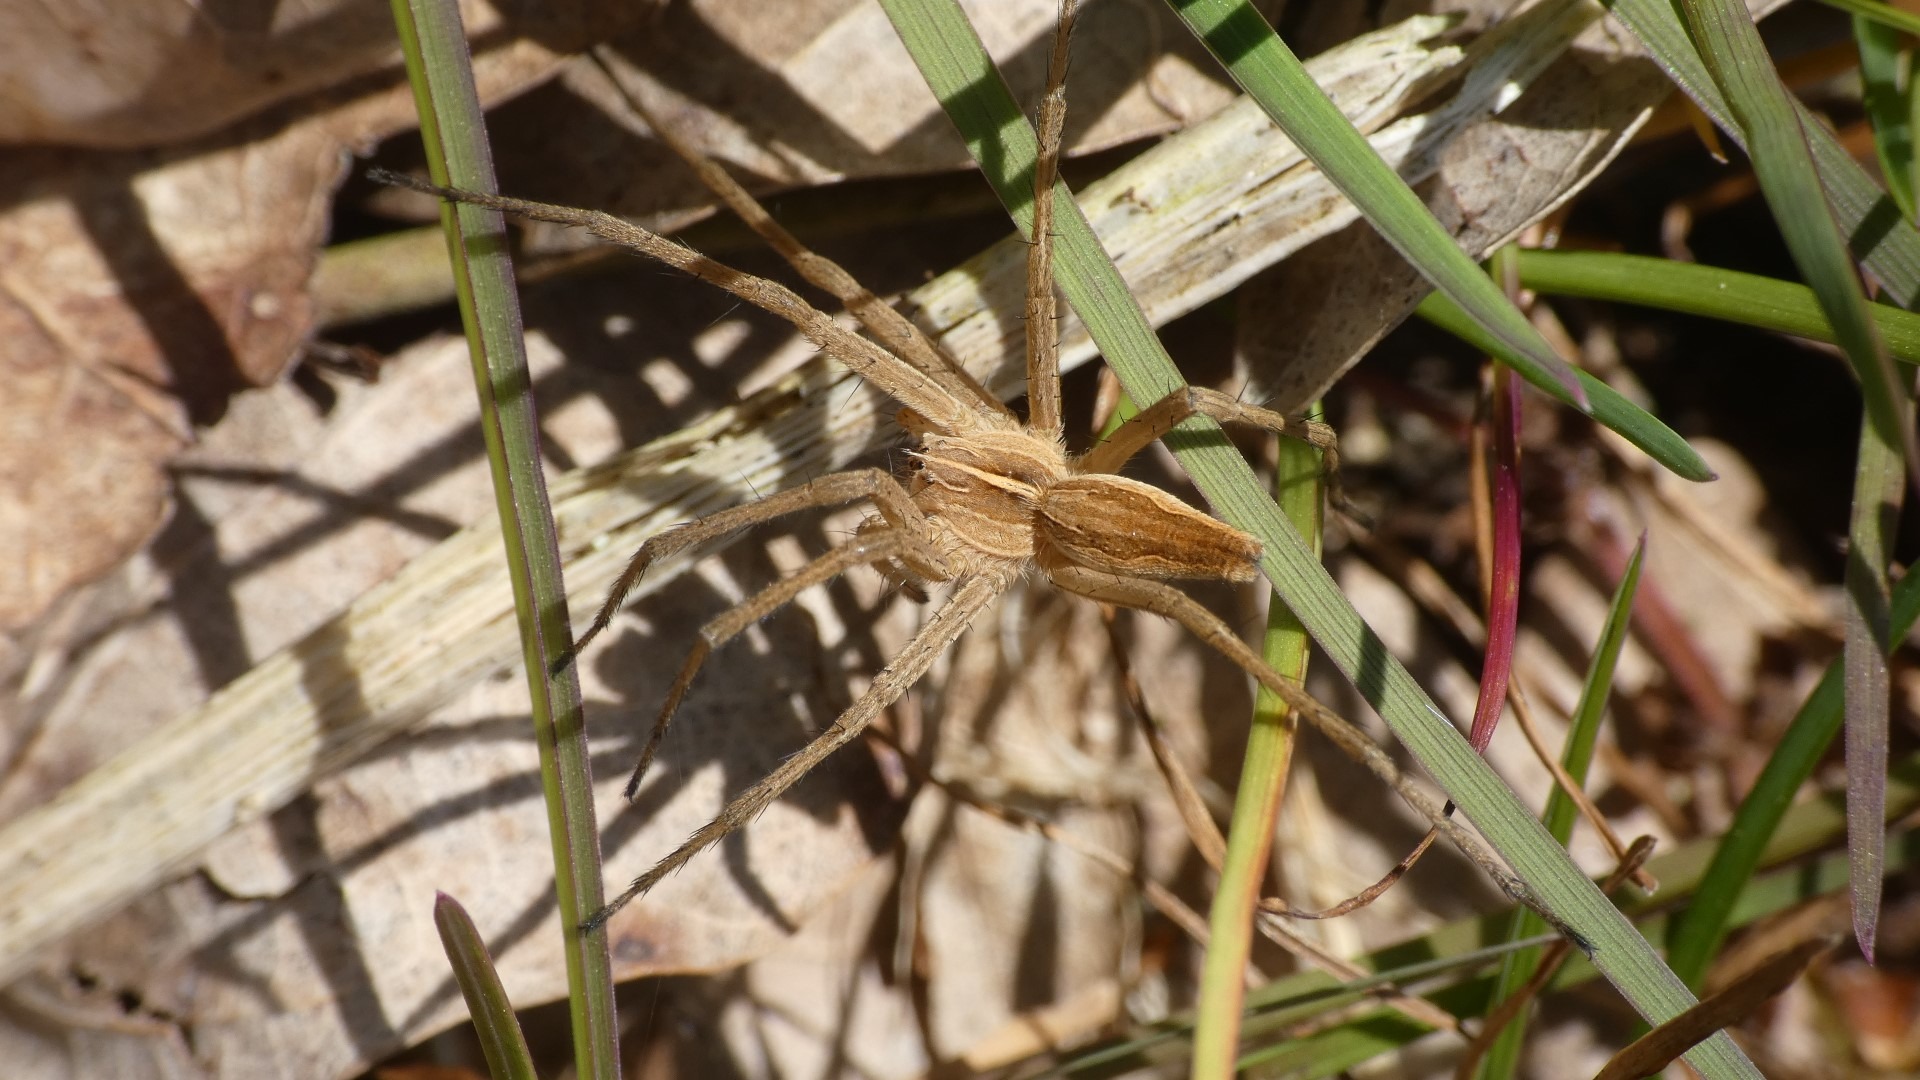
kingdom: Animalia
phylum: Arthropoda
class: Arachnida
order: Araneae
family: Pisauridae
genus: Pisaura
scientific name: Pisaura mirabilis
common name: Almindelig rovedderkop
